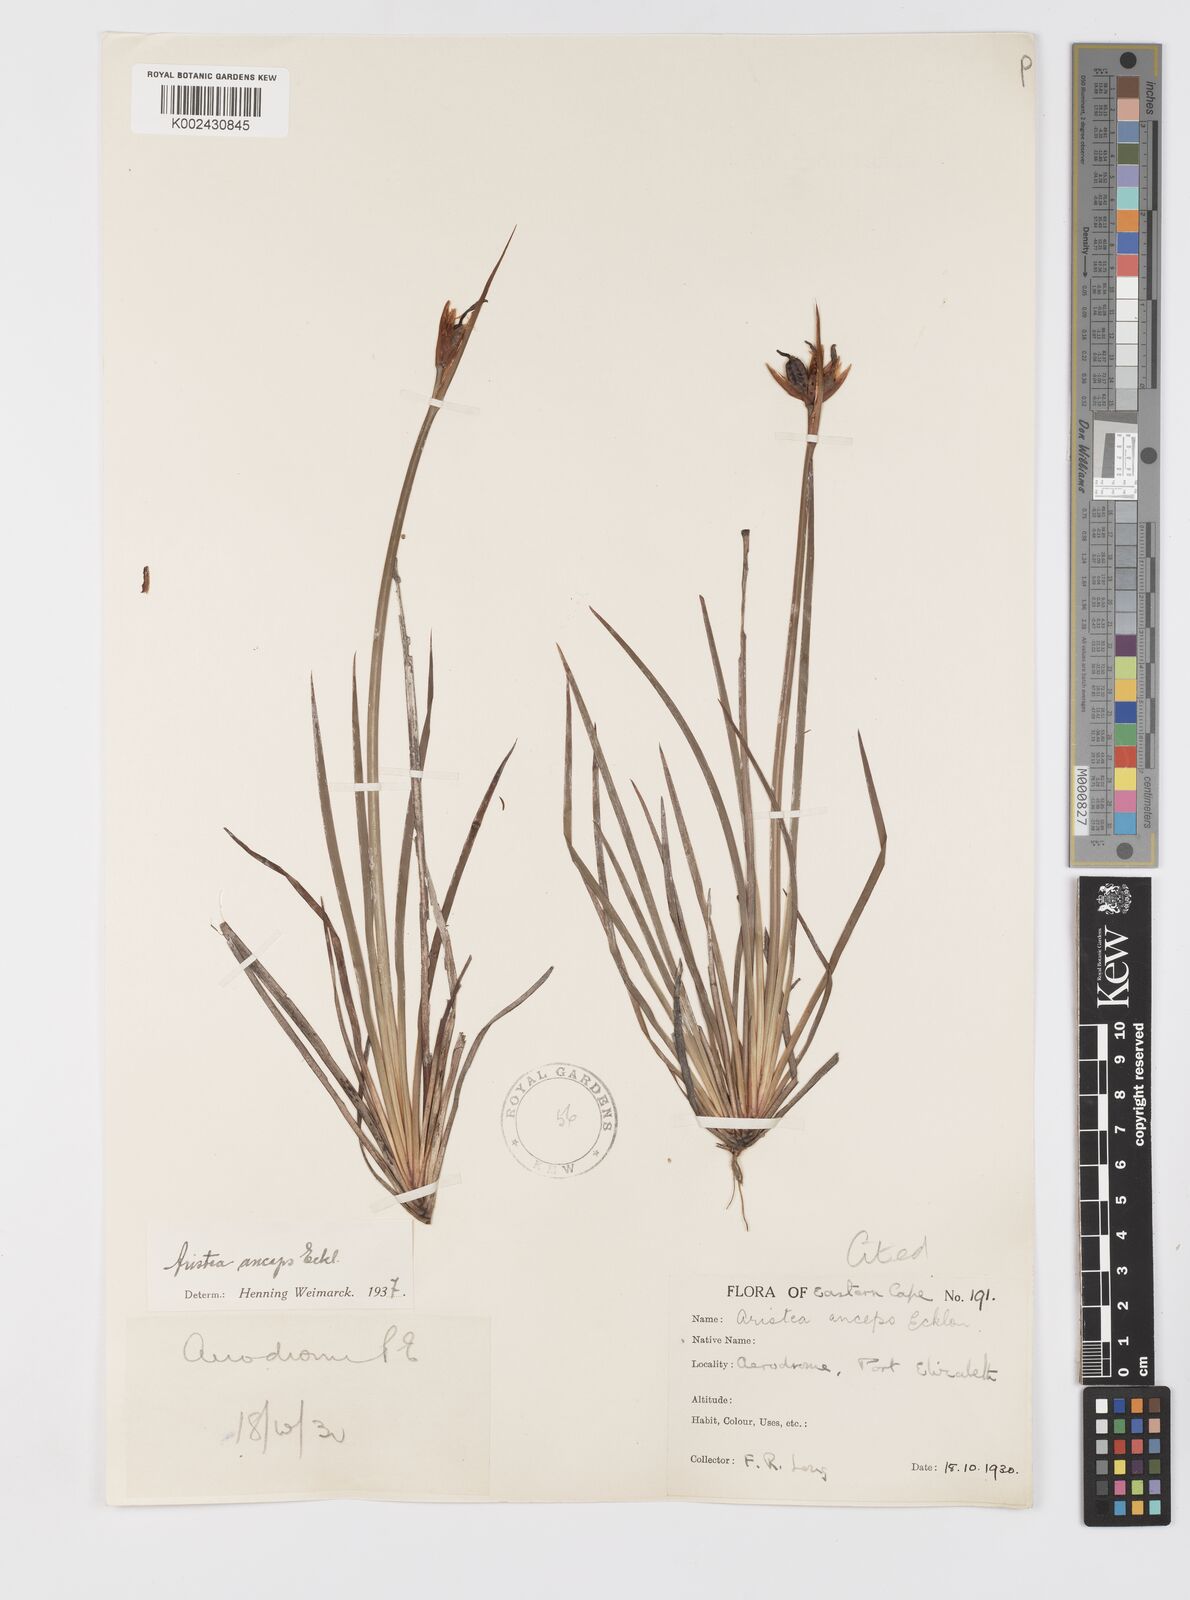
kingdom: Plantae
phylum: Tracheophyta
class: Liliopsida
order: Asparagales
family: Iridaceae
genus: Aristea
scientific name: Aristea anceps
